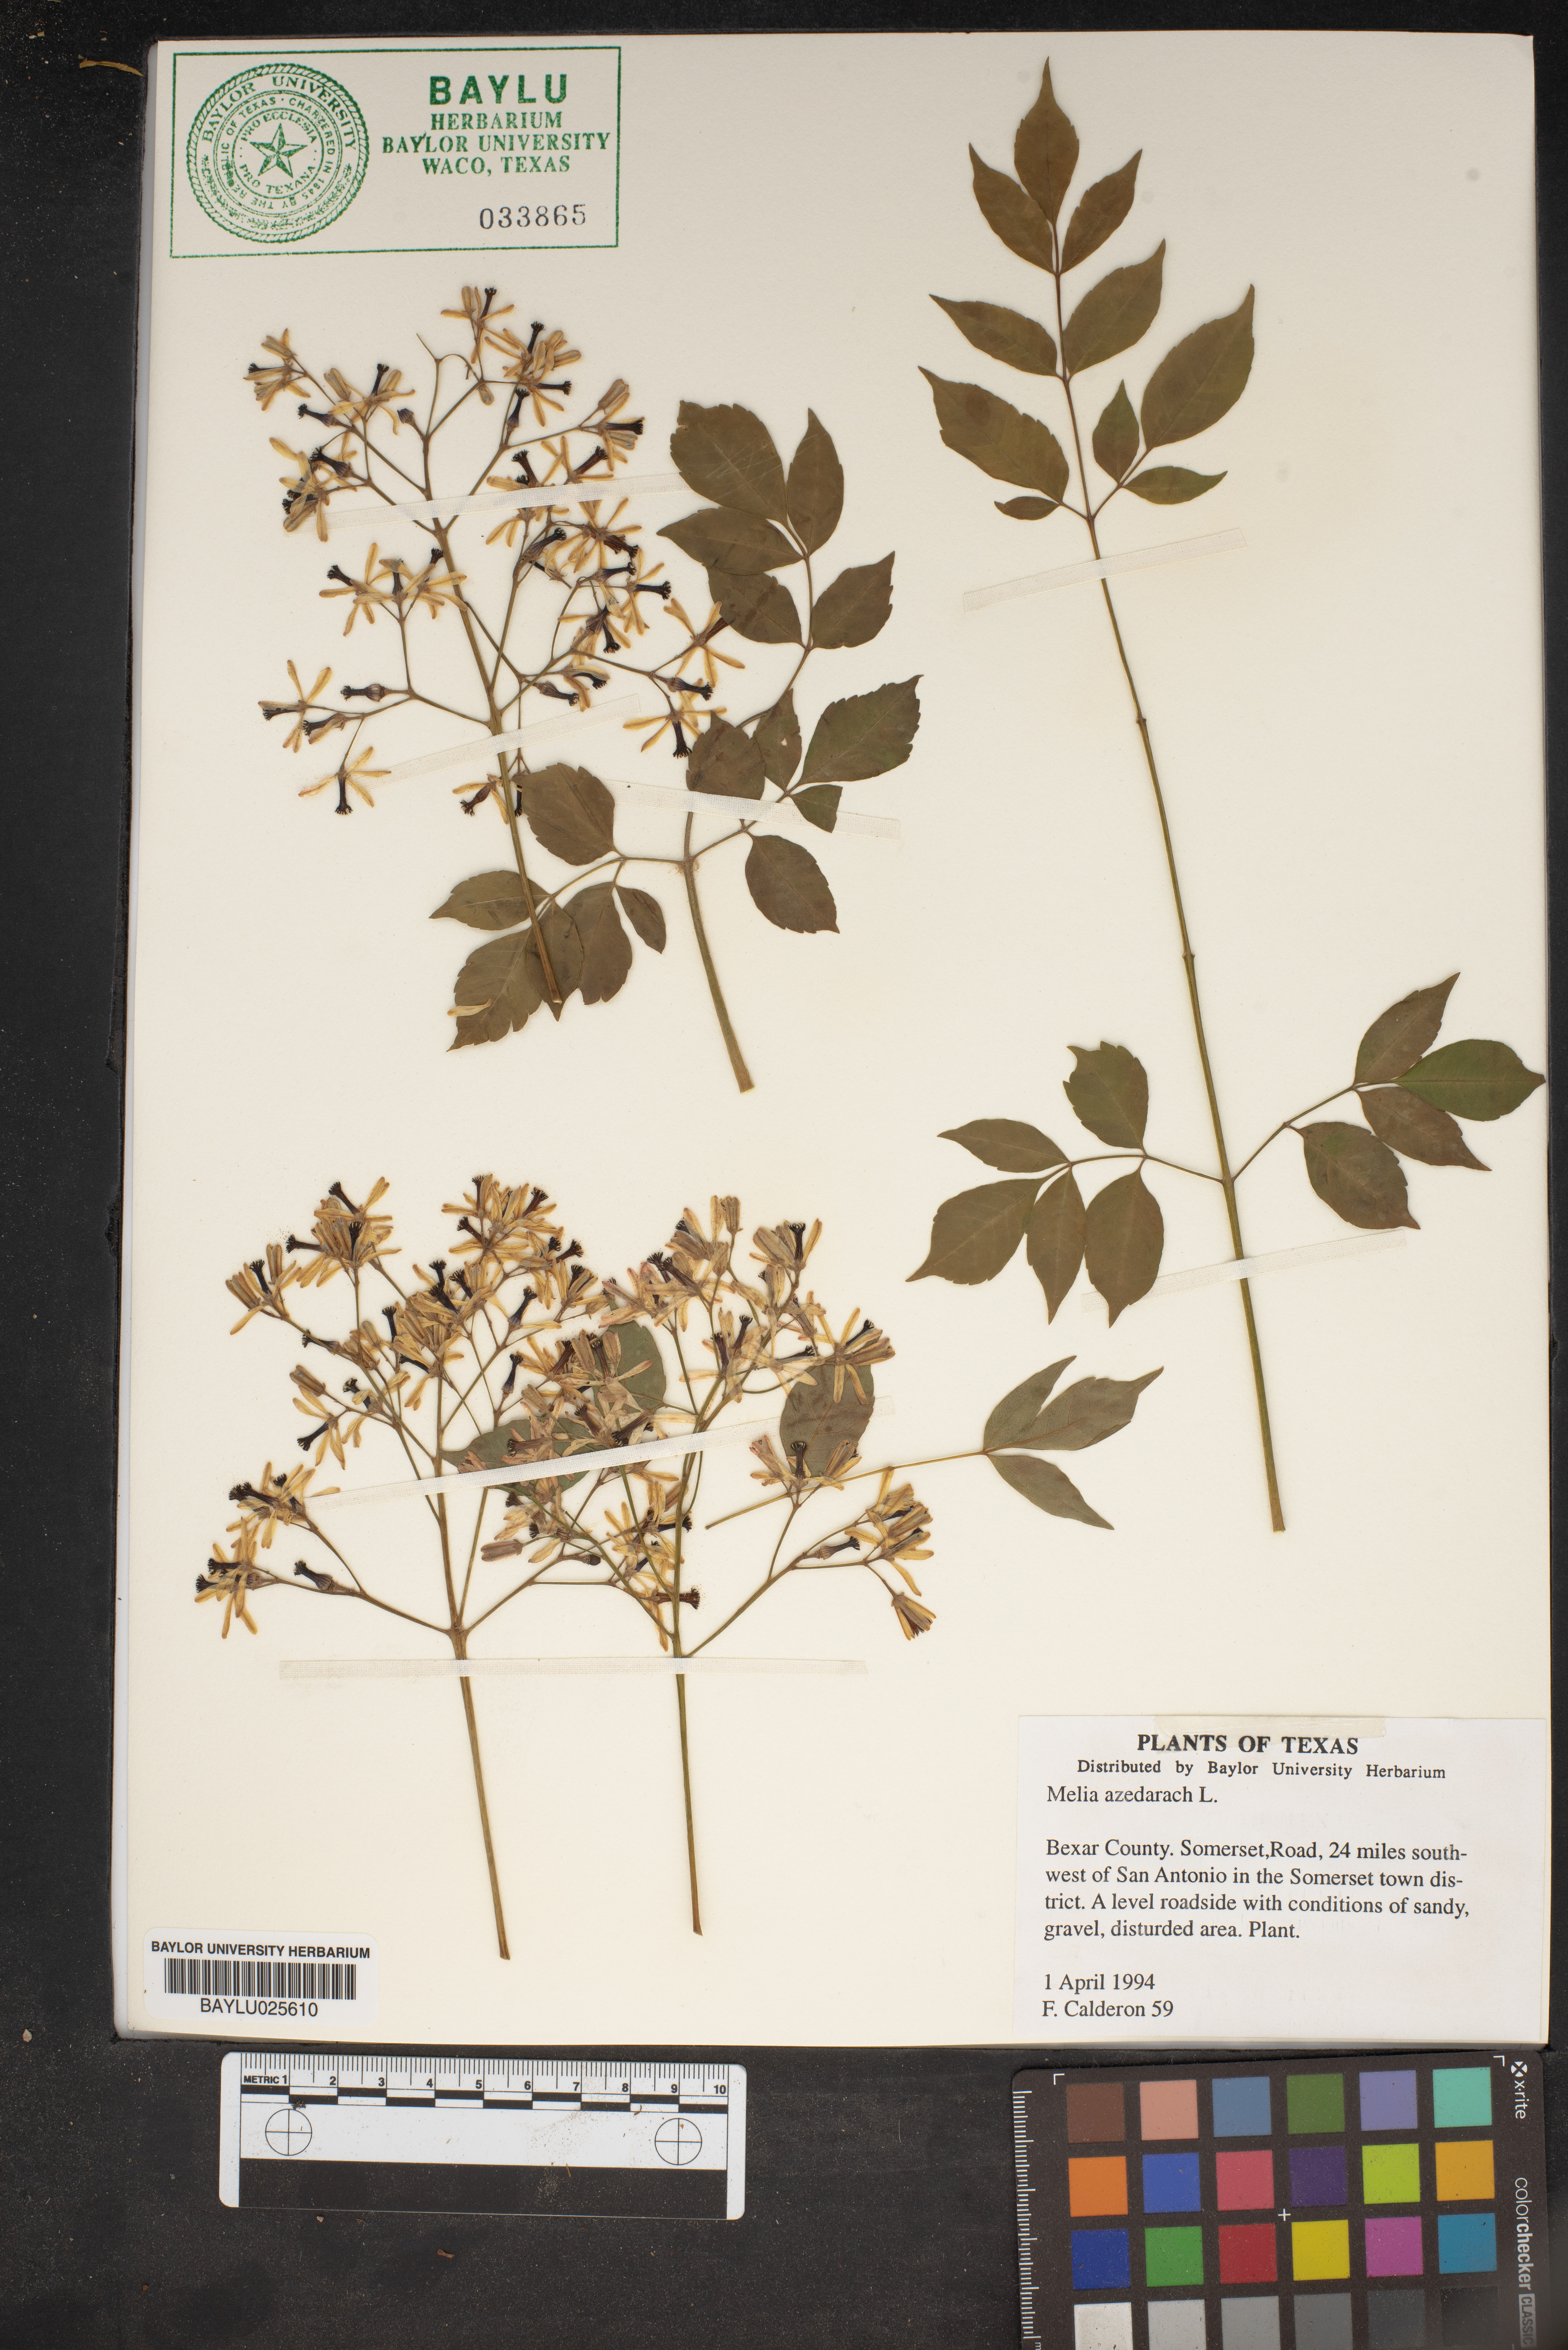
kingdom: Plantae
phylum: Tracheophyta
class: Magnoliopsida
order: Sapindales
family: Meliaceae
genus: Melia
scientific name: Melia azedarach
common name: Chinaberrytree
